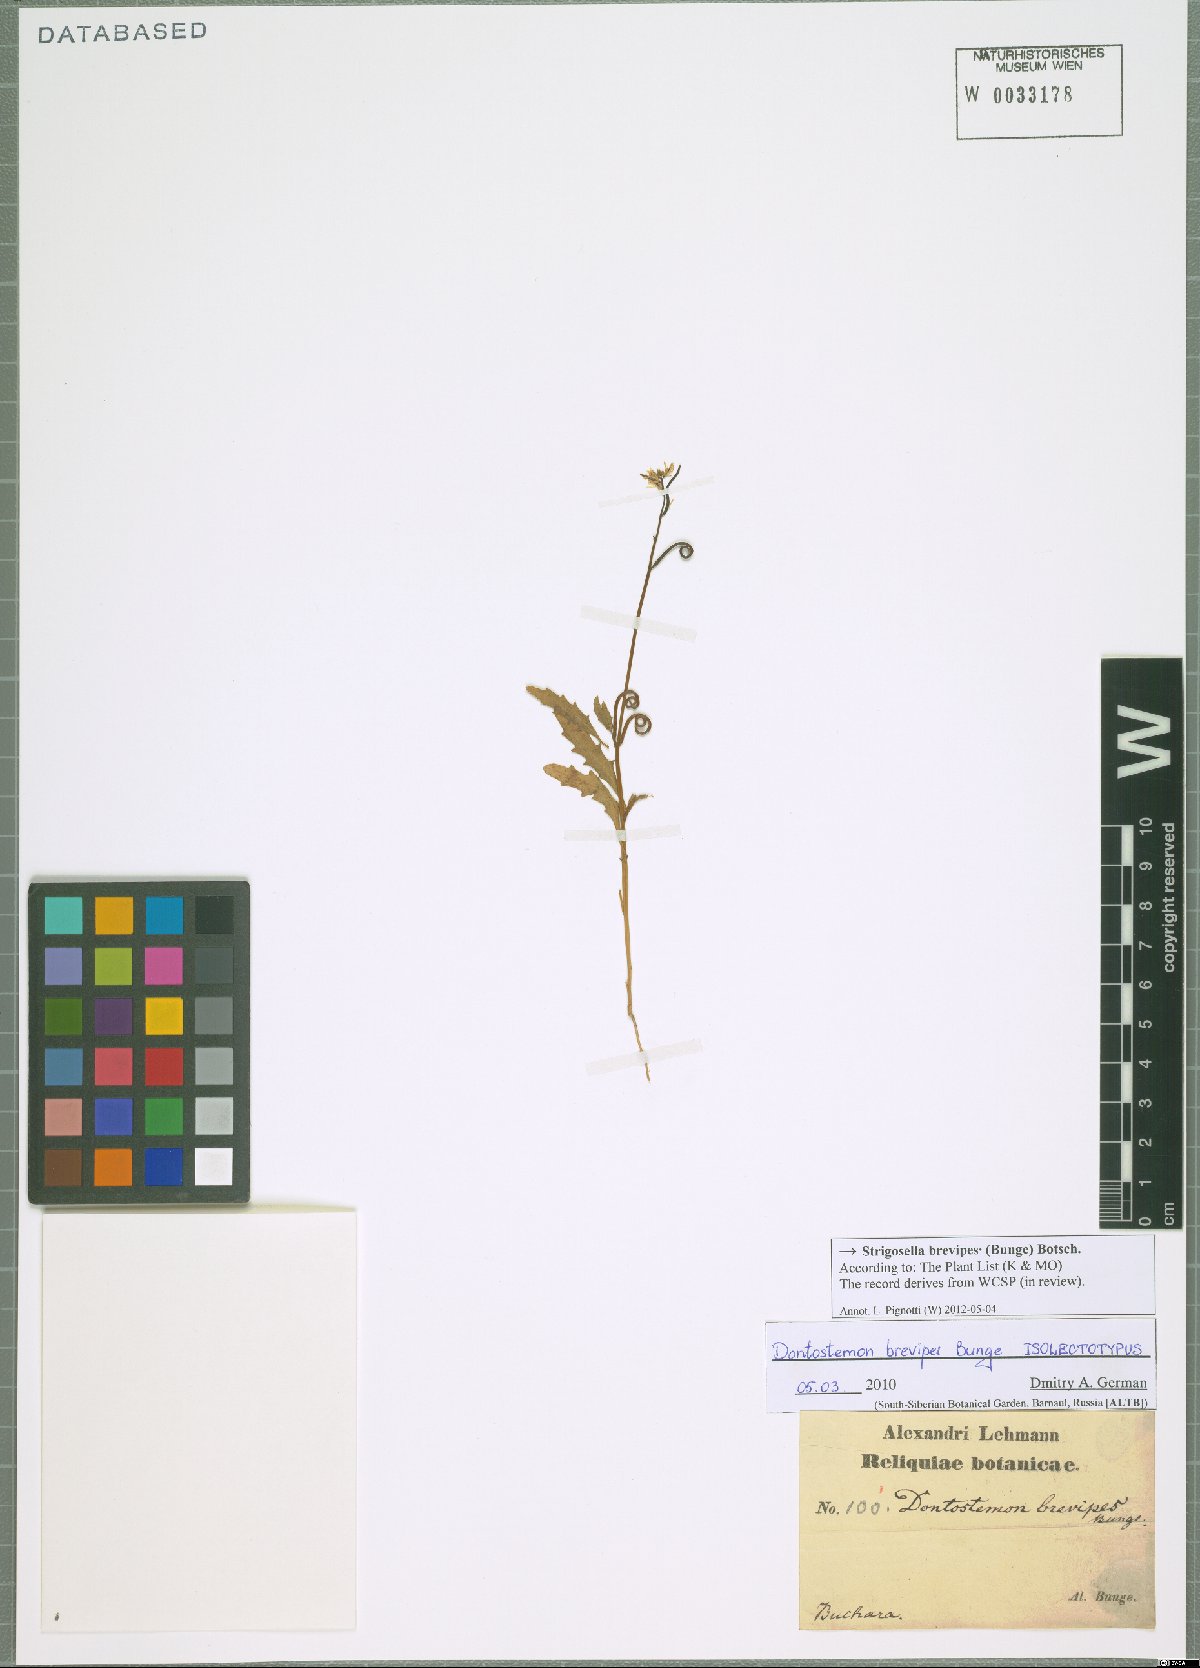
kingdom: Plantae
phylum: Tracheophyta
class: Magnoliopsida
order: Brassicales
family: Brassicaceae
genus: Strigosella
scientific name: Strigosella brevipes
